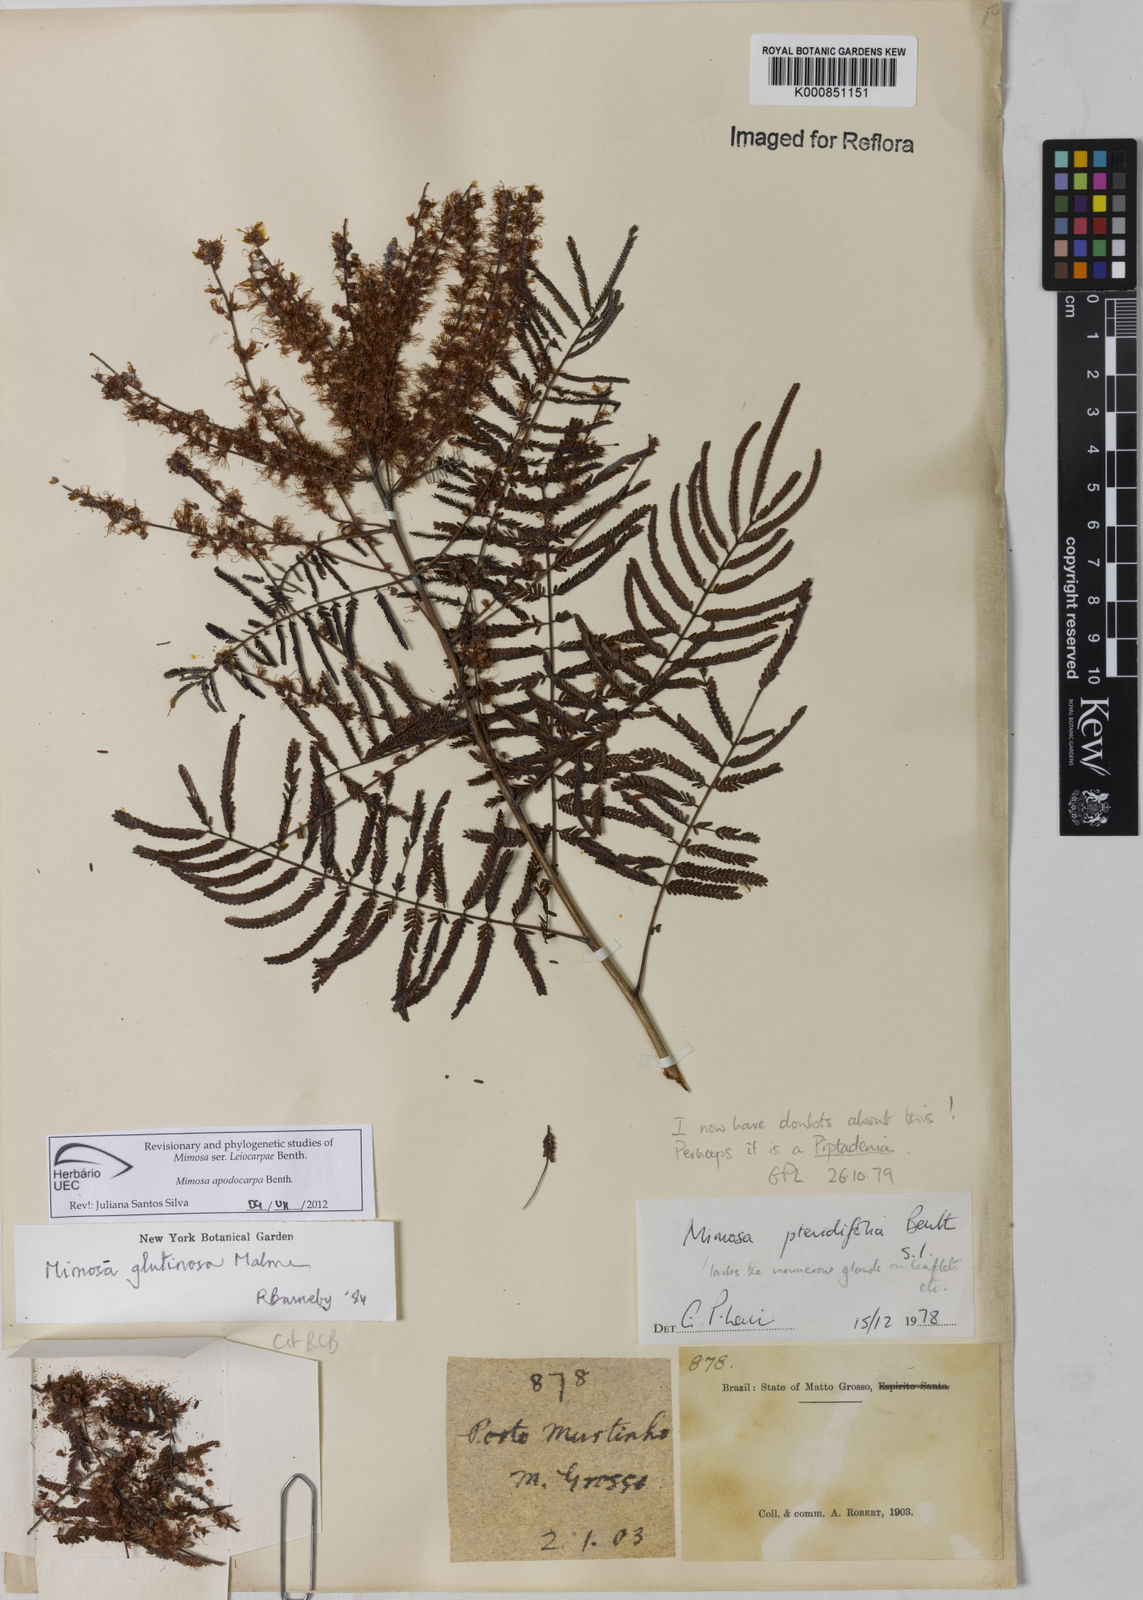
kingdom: Plantae
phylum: Tracheophyta
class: Magnoliopsida
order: Fabales
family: Fabaceae
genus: Mimosa
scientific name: Mimosa apodocarpa
